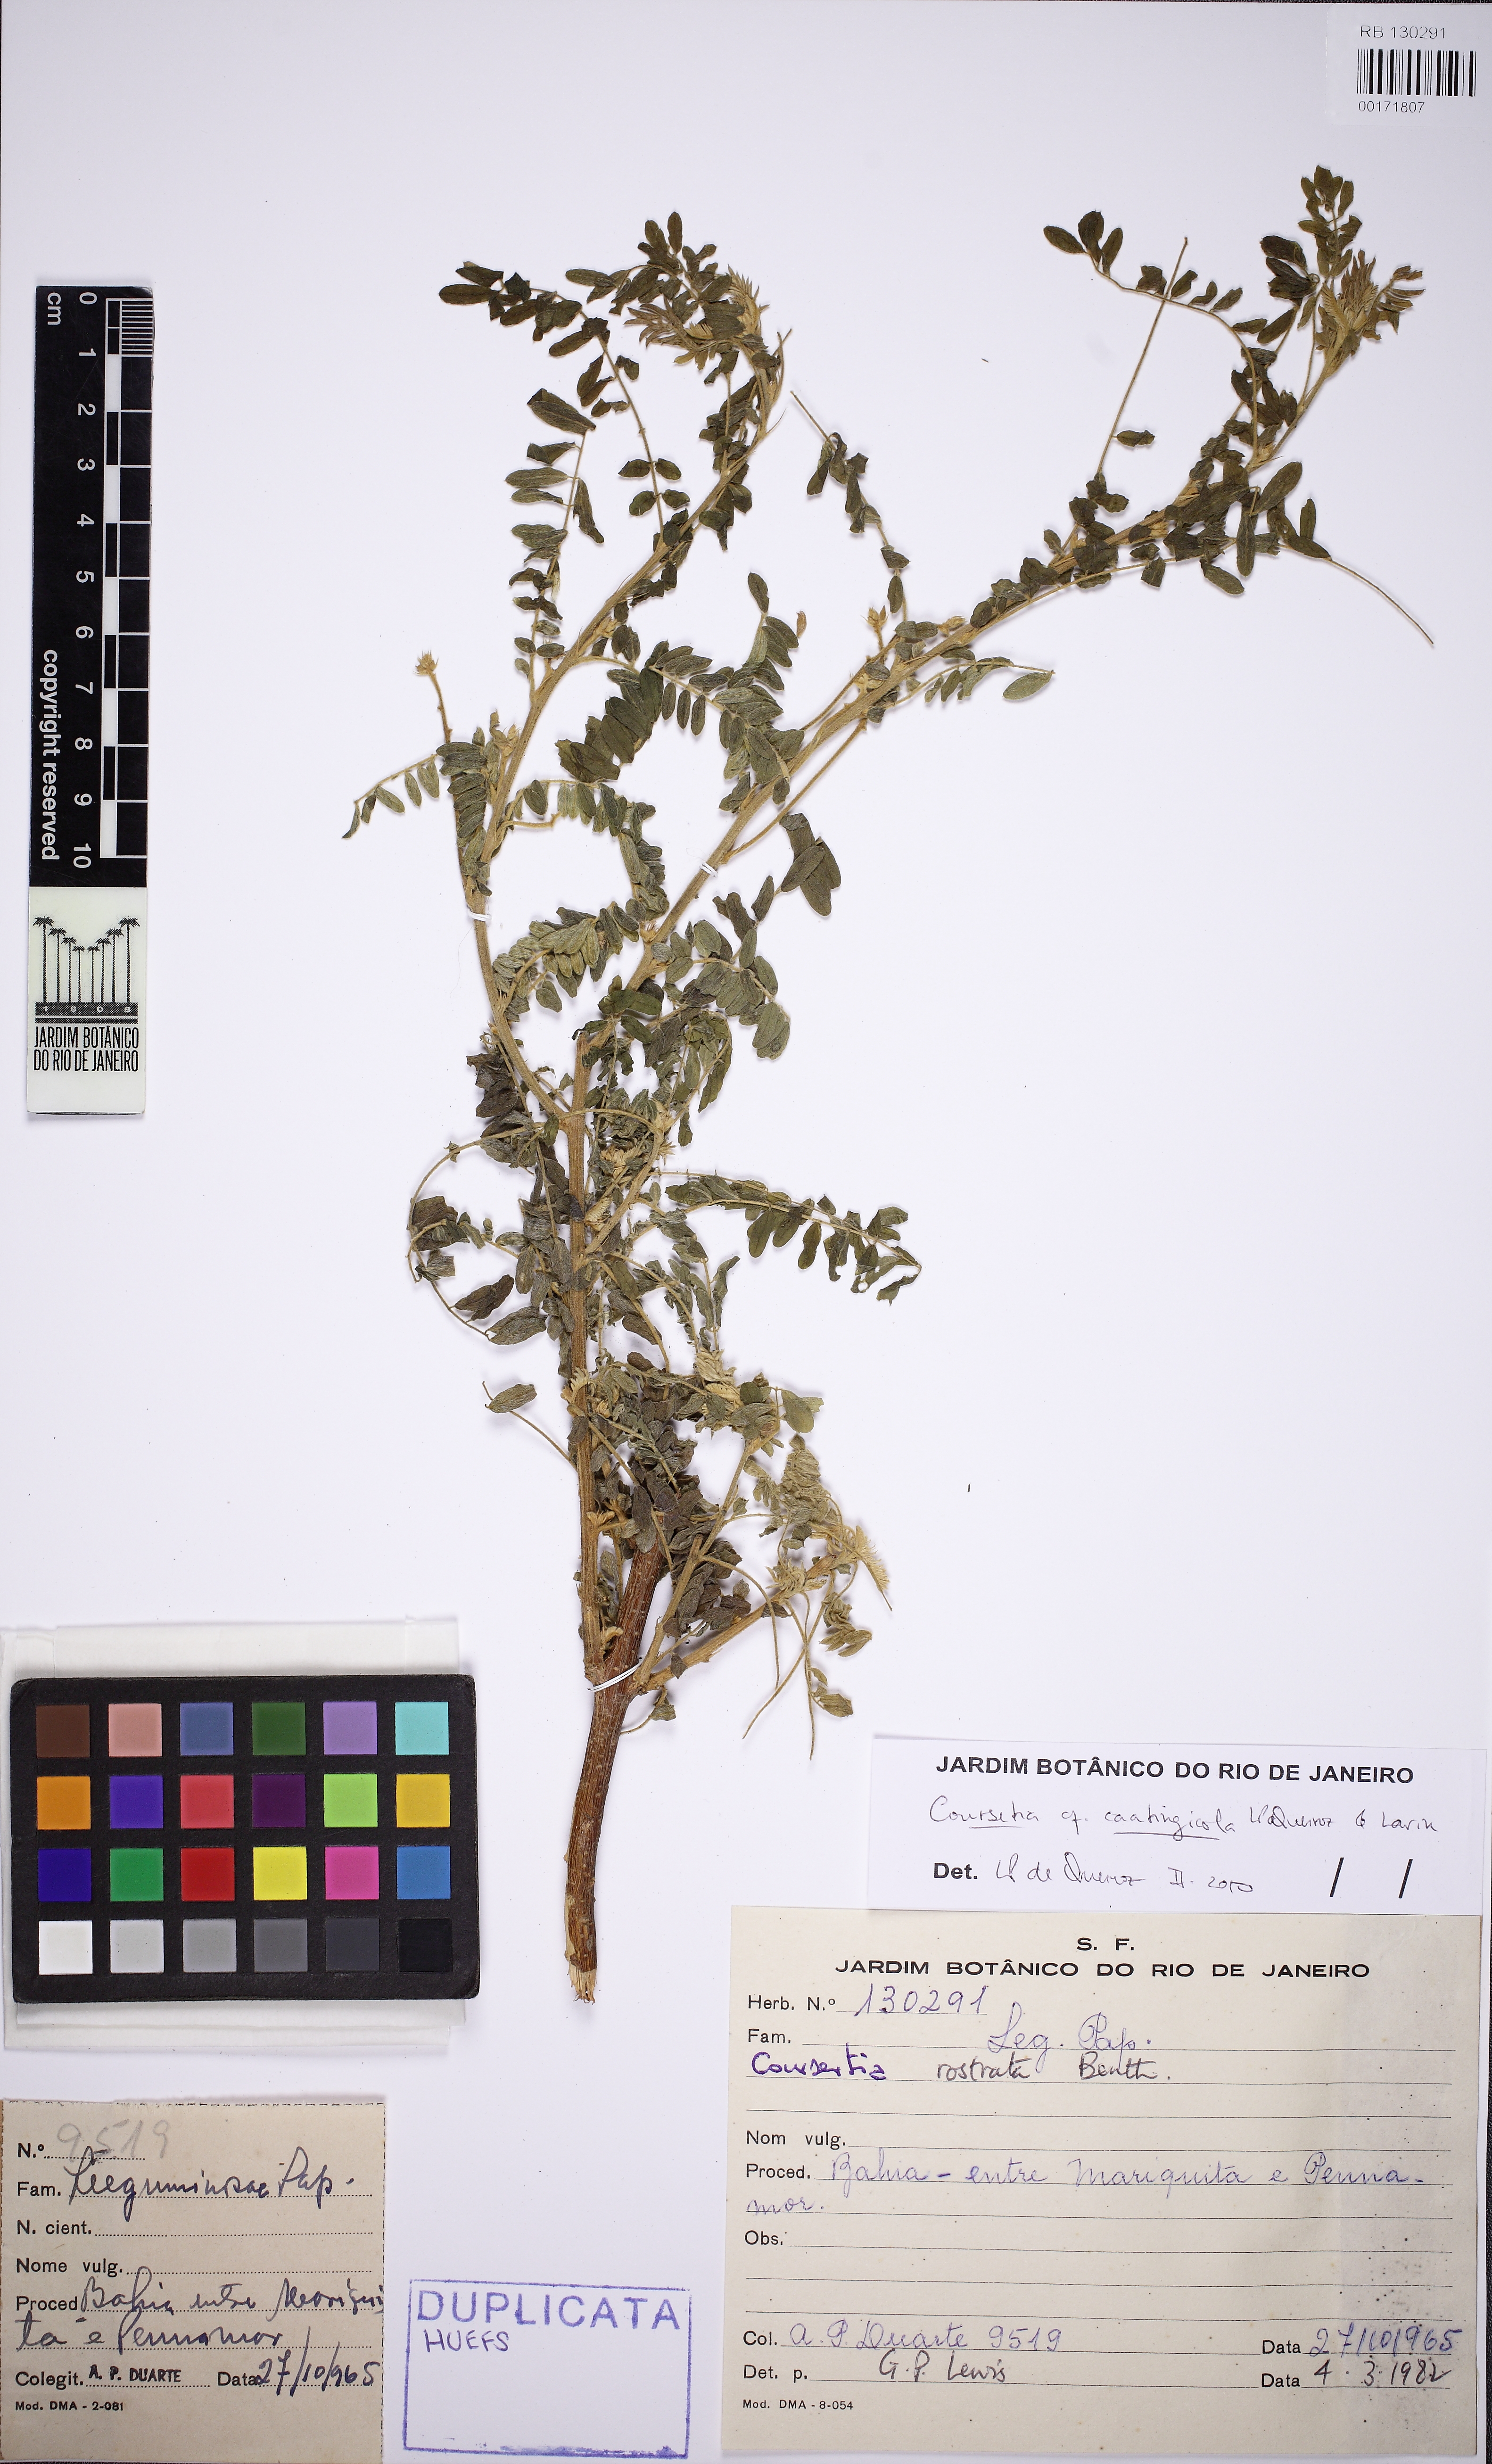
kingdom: Plantae
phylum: Tracheophyta
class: Magnoliopsida
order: Fabales
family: Fabaceae
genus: Coursetia
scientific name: Coursetia caatingicola
